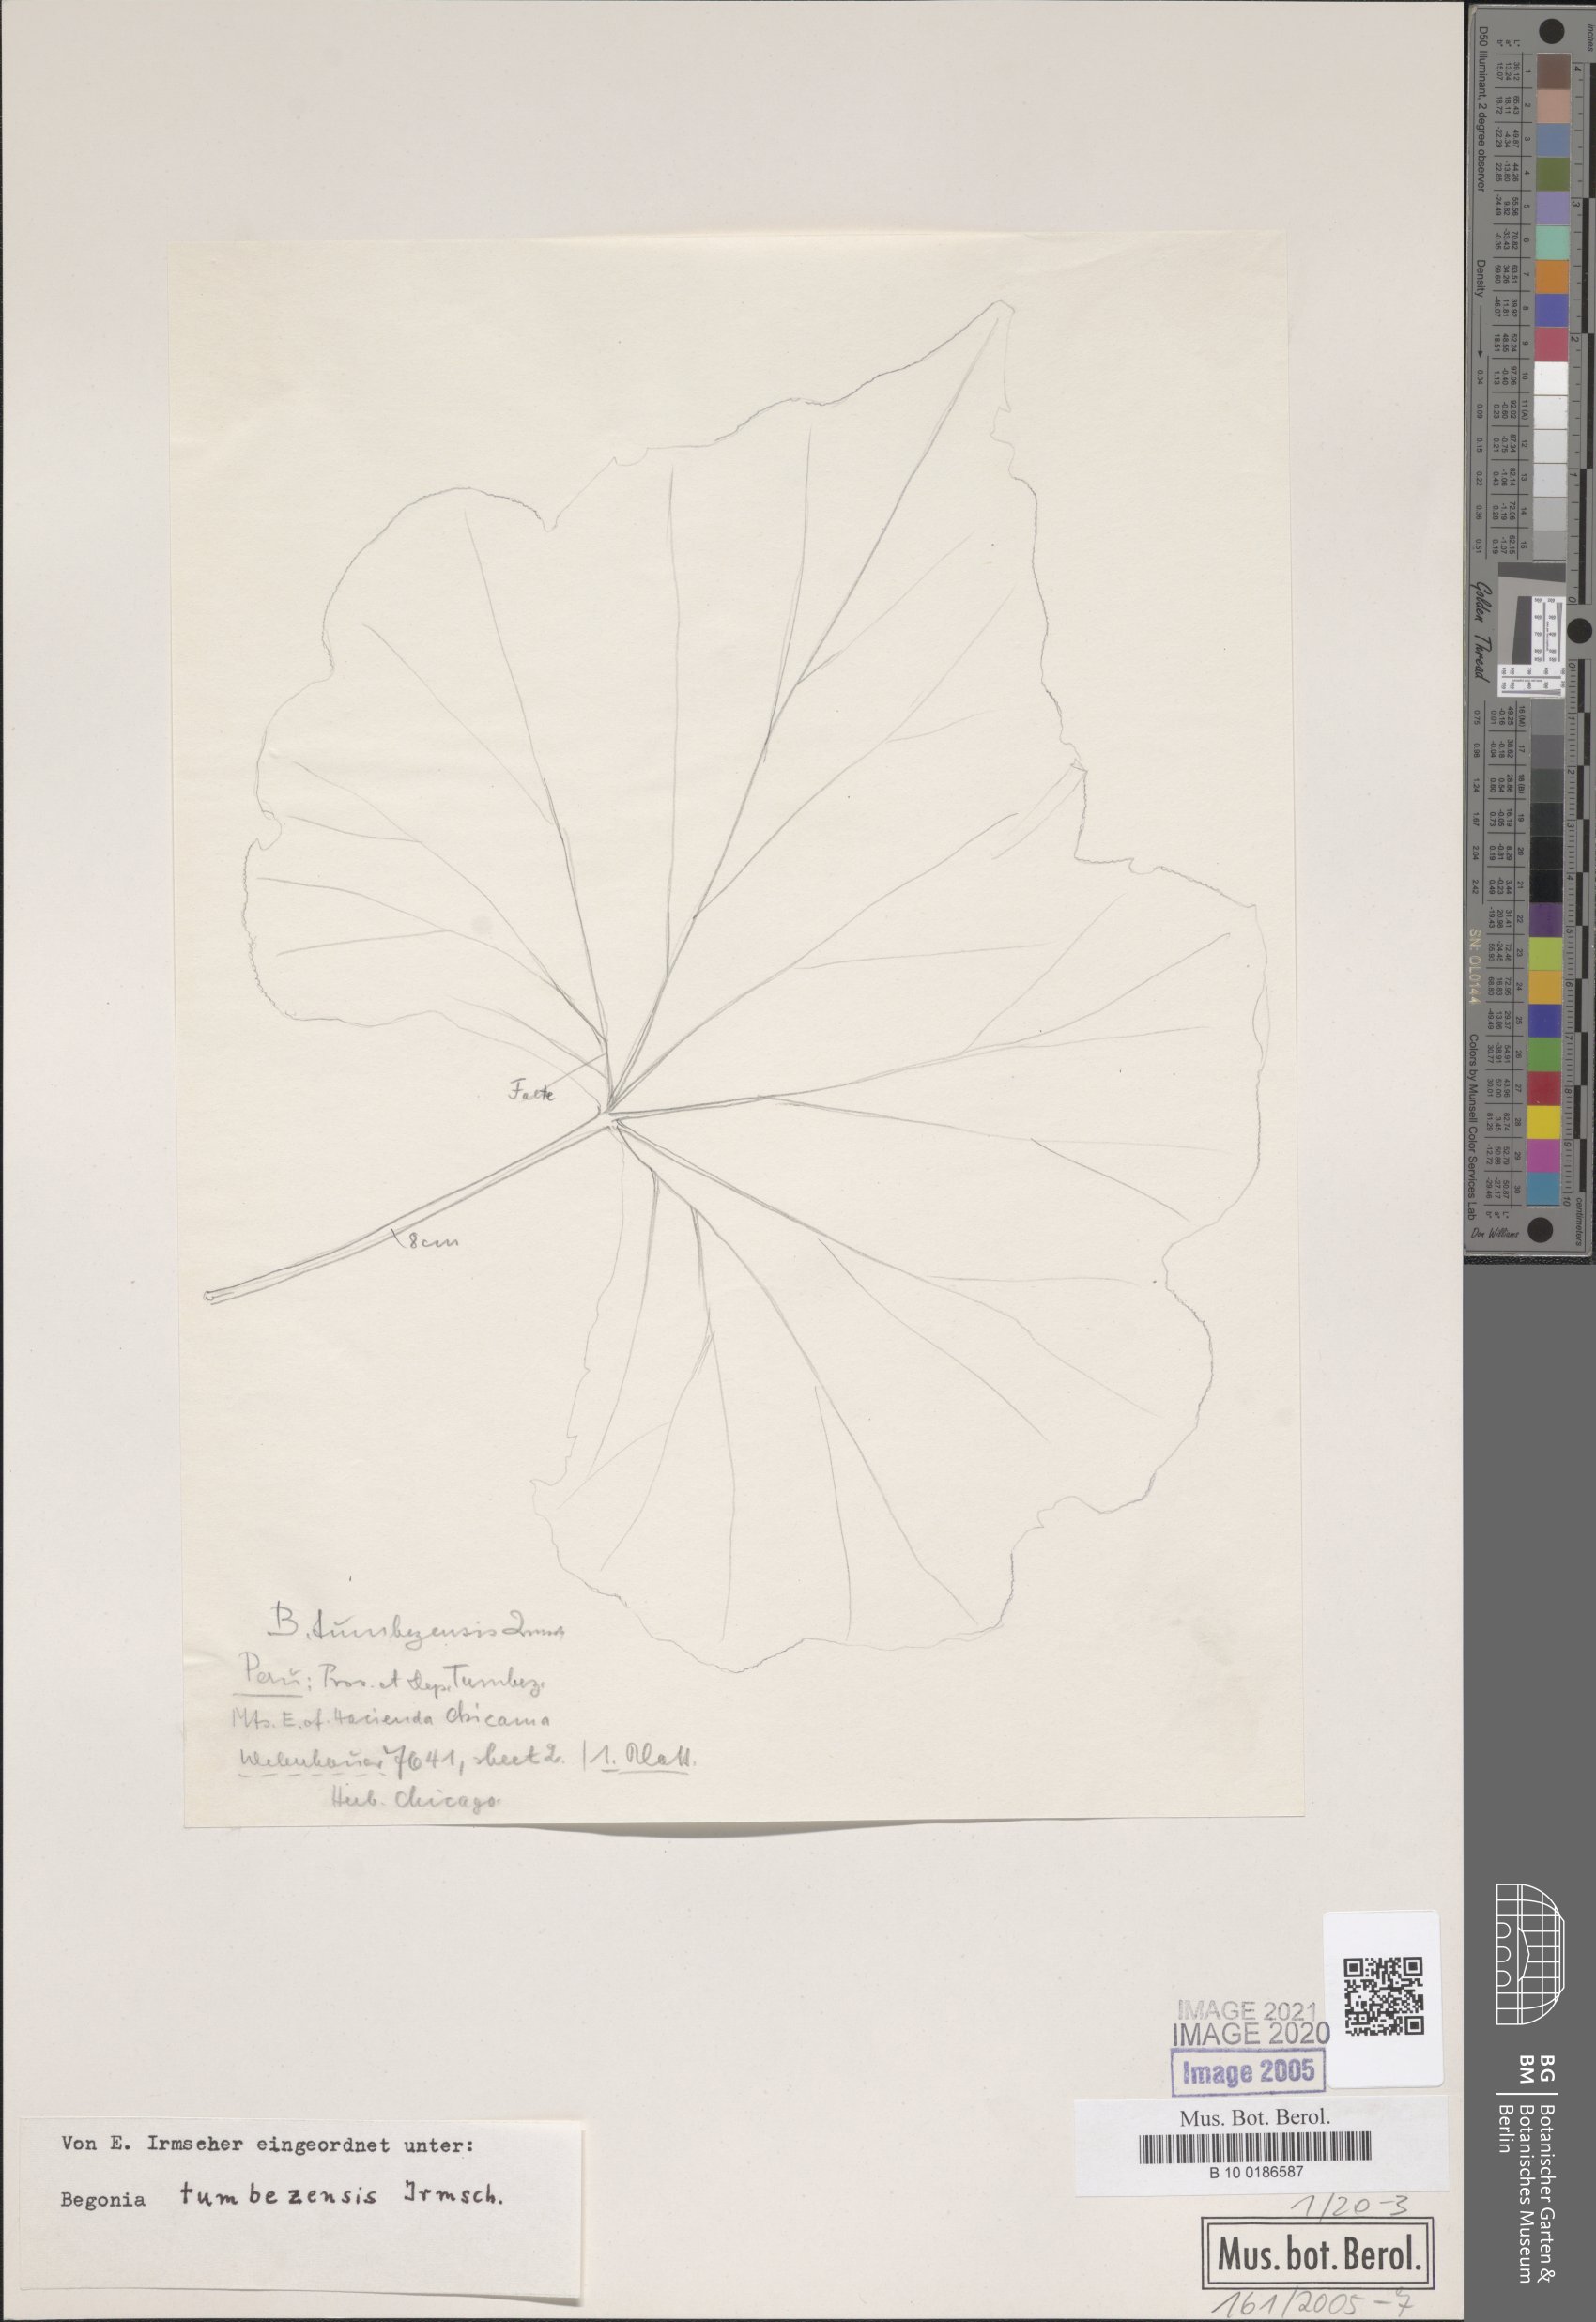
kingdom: Plantae
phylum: Tracheophyta
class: Magnoliopsida
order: Cucurbitales
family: Begoniaceae
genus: Begonia
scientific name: Begonia tumbezensis
